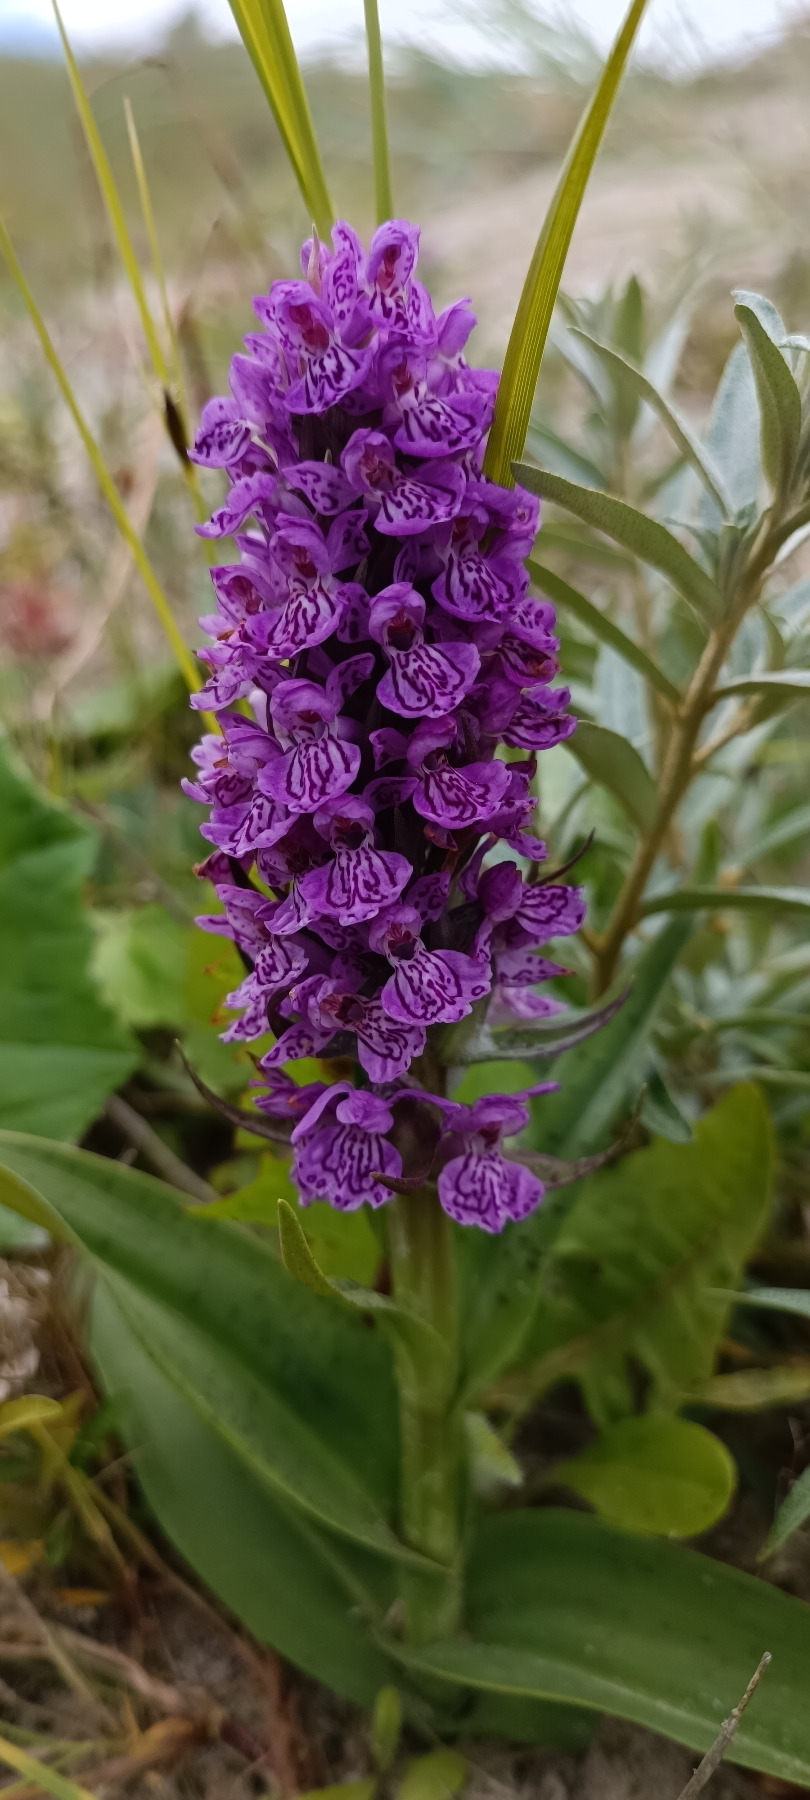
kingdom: Plantae
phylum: Tracheophyta
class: Liliopsida
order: Asparagales
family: Orchidaceae
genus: Dactylorhiza
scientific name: Dactylorhiza majalis
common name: Vendsyssel-gøgeurt
